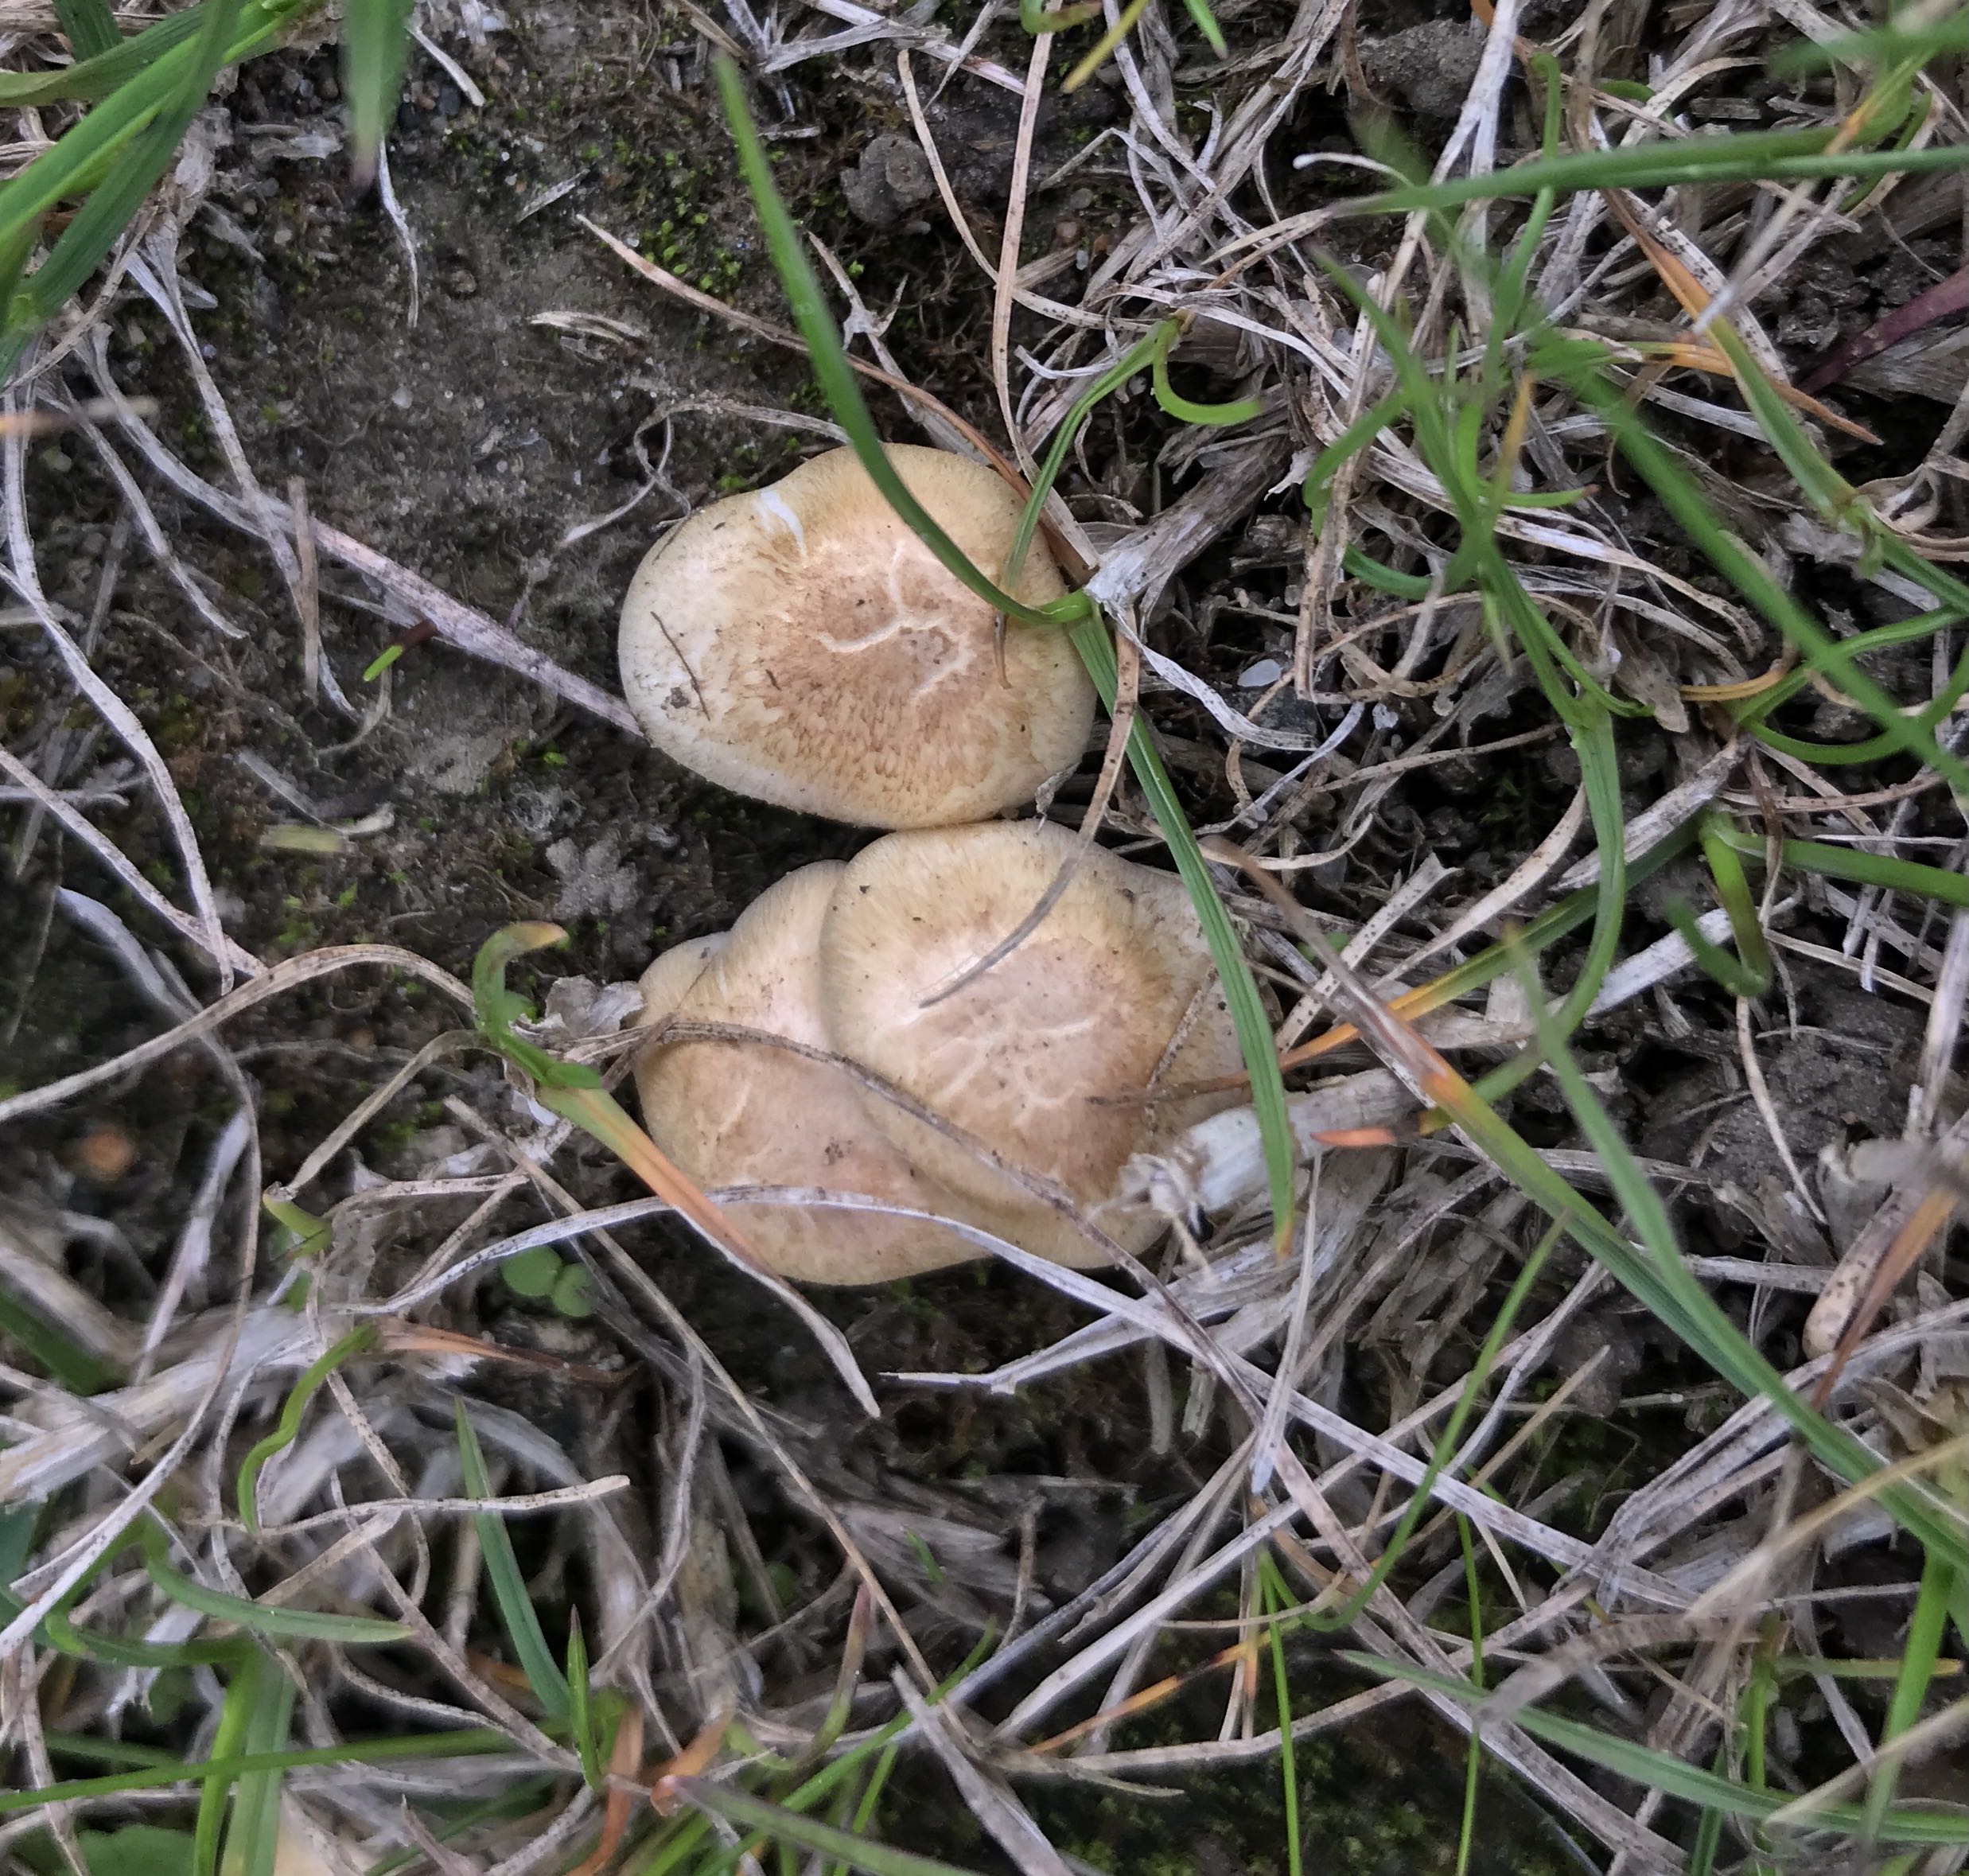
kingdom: Fungi
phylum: Basidiomycota
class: Agaricomycetes
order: Agaricales
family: Agaricaceae
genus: Agaricus
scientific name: Agaricus
